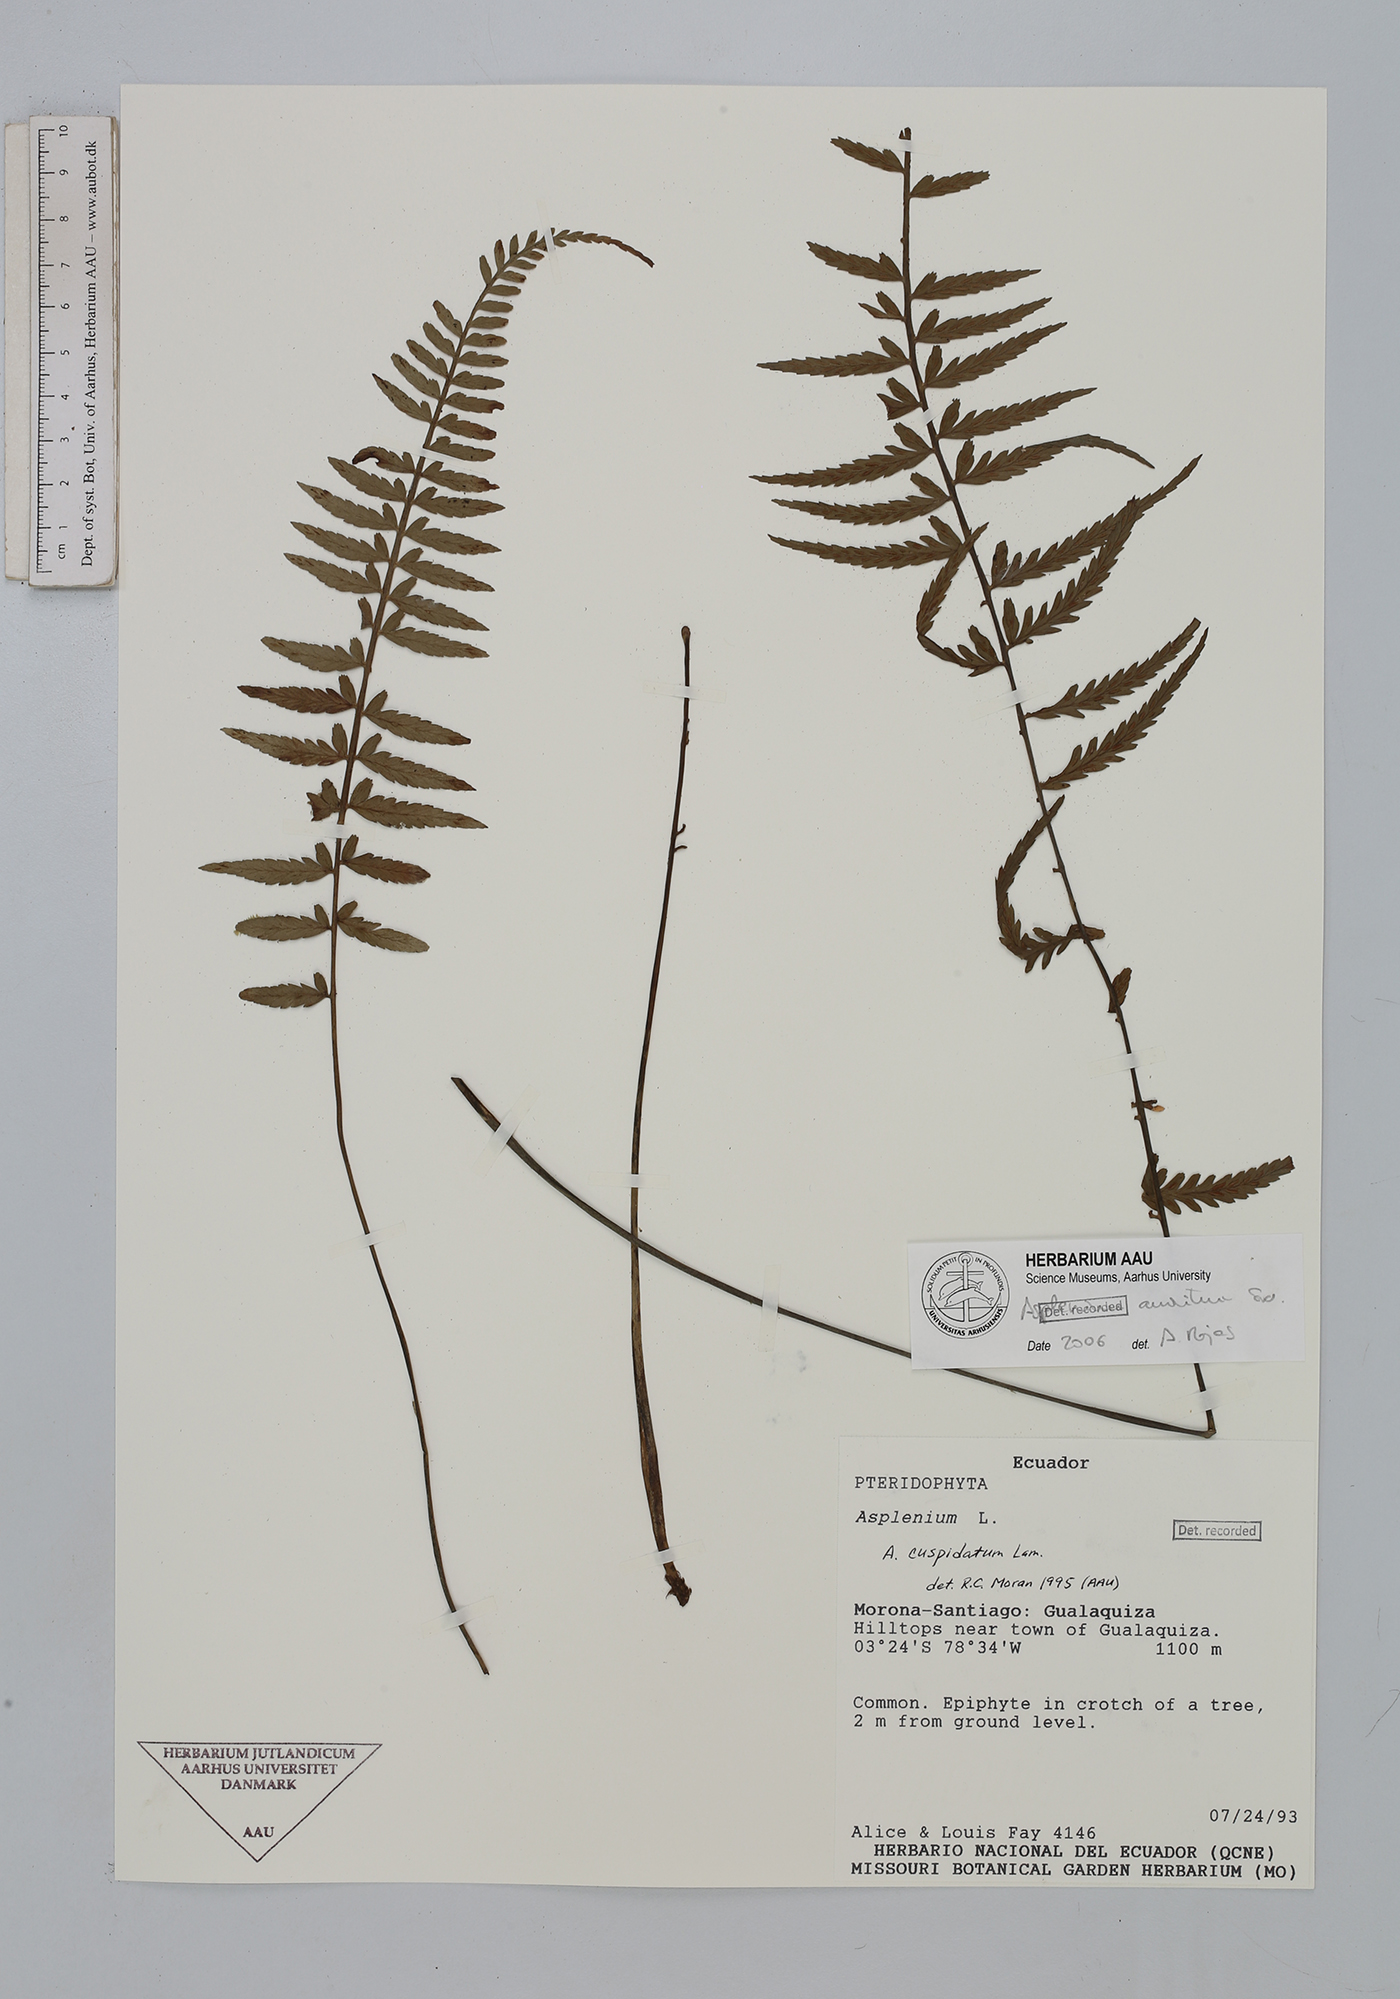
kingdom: Plantae
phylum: Tracheophyta
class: Polypodiopsida
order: Polypodiales
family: Aspleniaceae
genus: Asplenium
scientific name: Asplenium auritum
